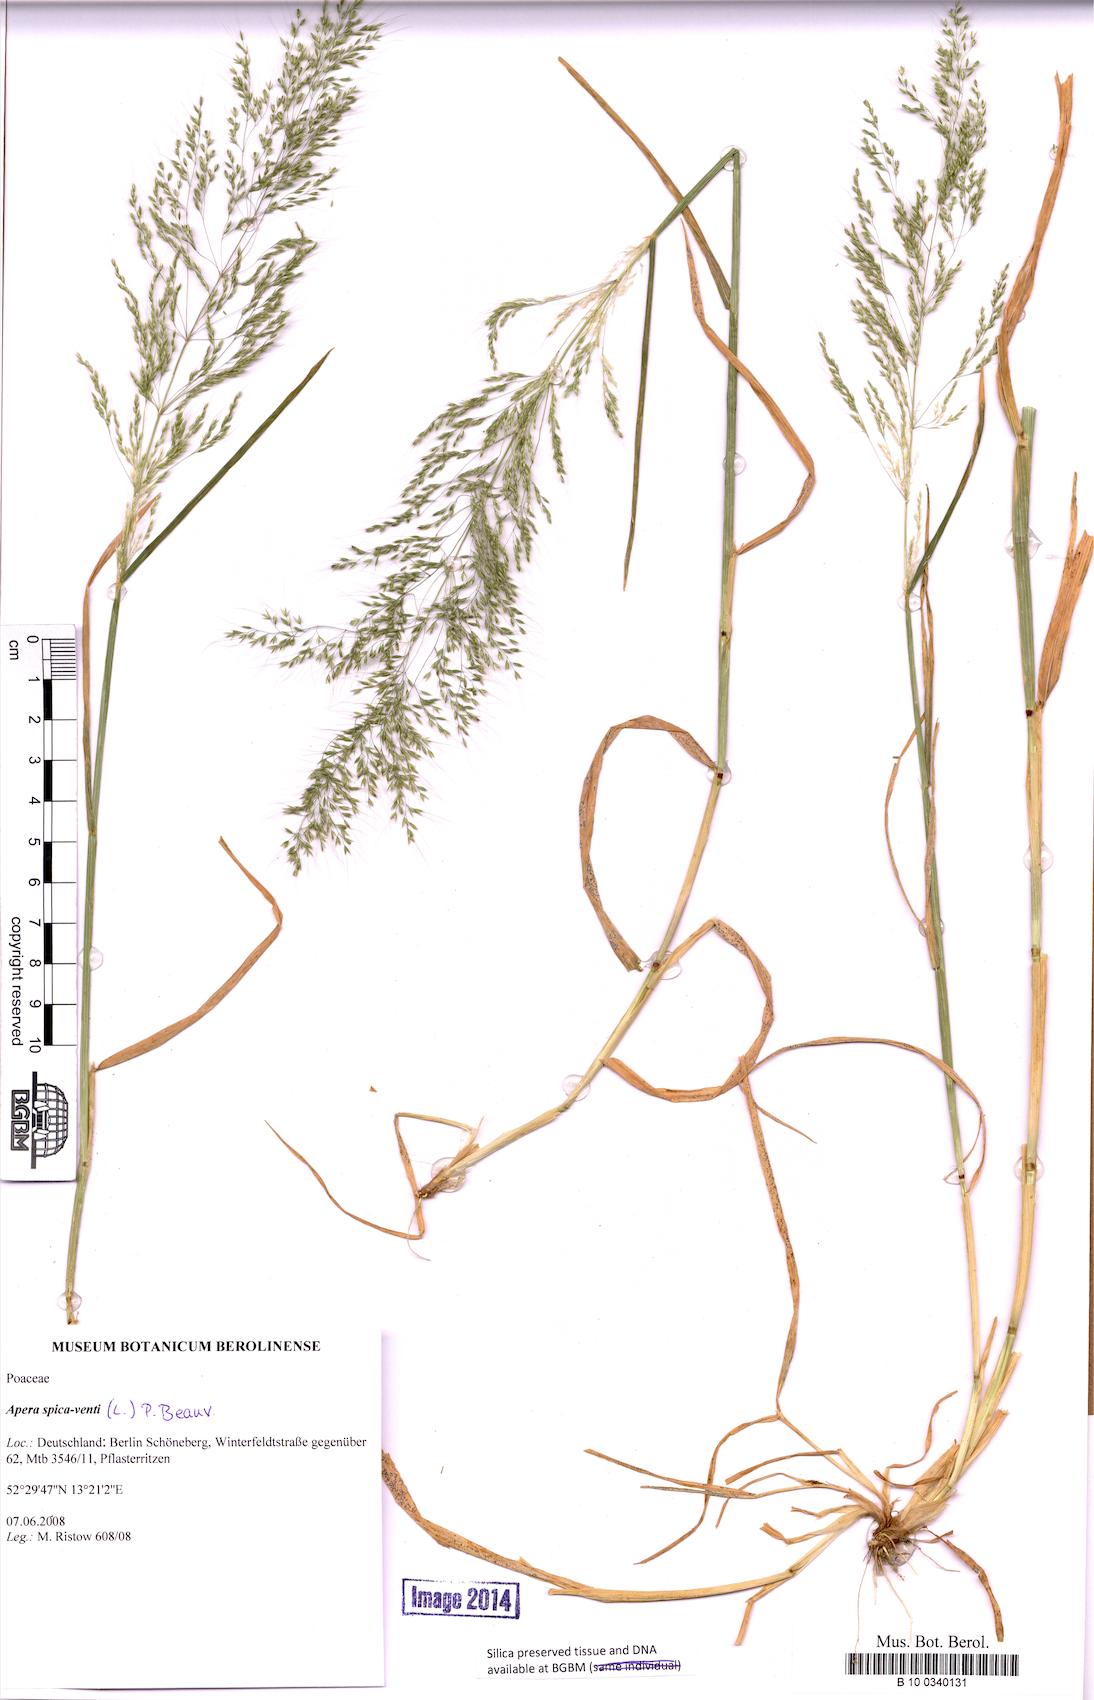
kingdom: Plantae
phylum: Tracheophyta
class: Liliopsida
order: Poales
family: Poaceae
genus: Apera
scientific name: Apera spica-venti
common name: Loose silky-bent
